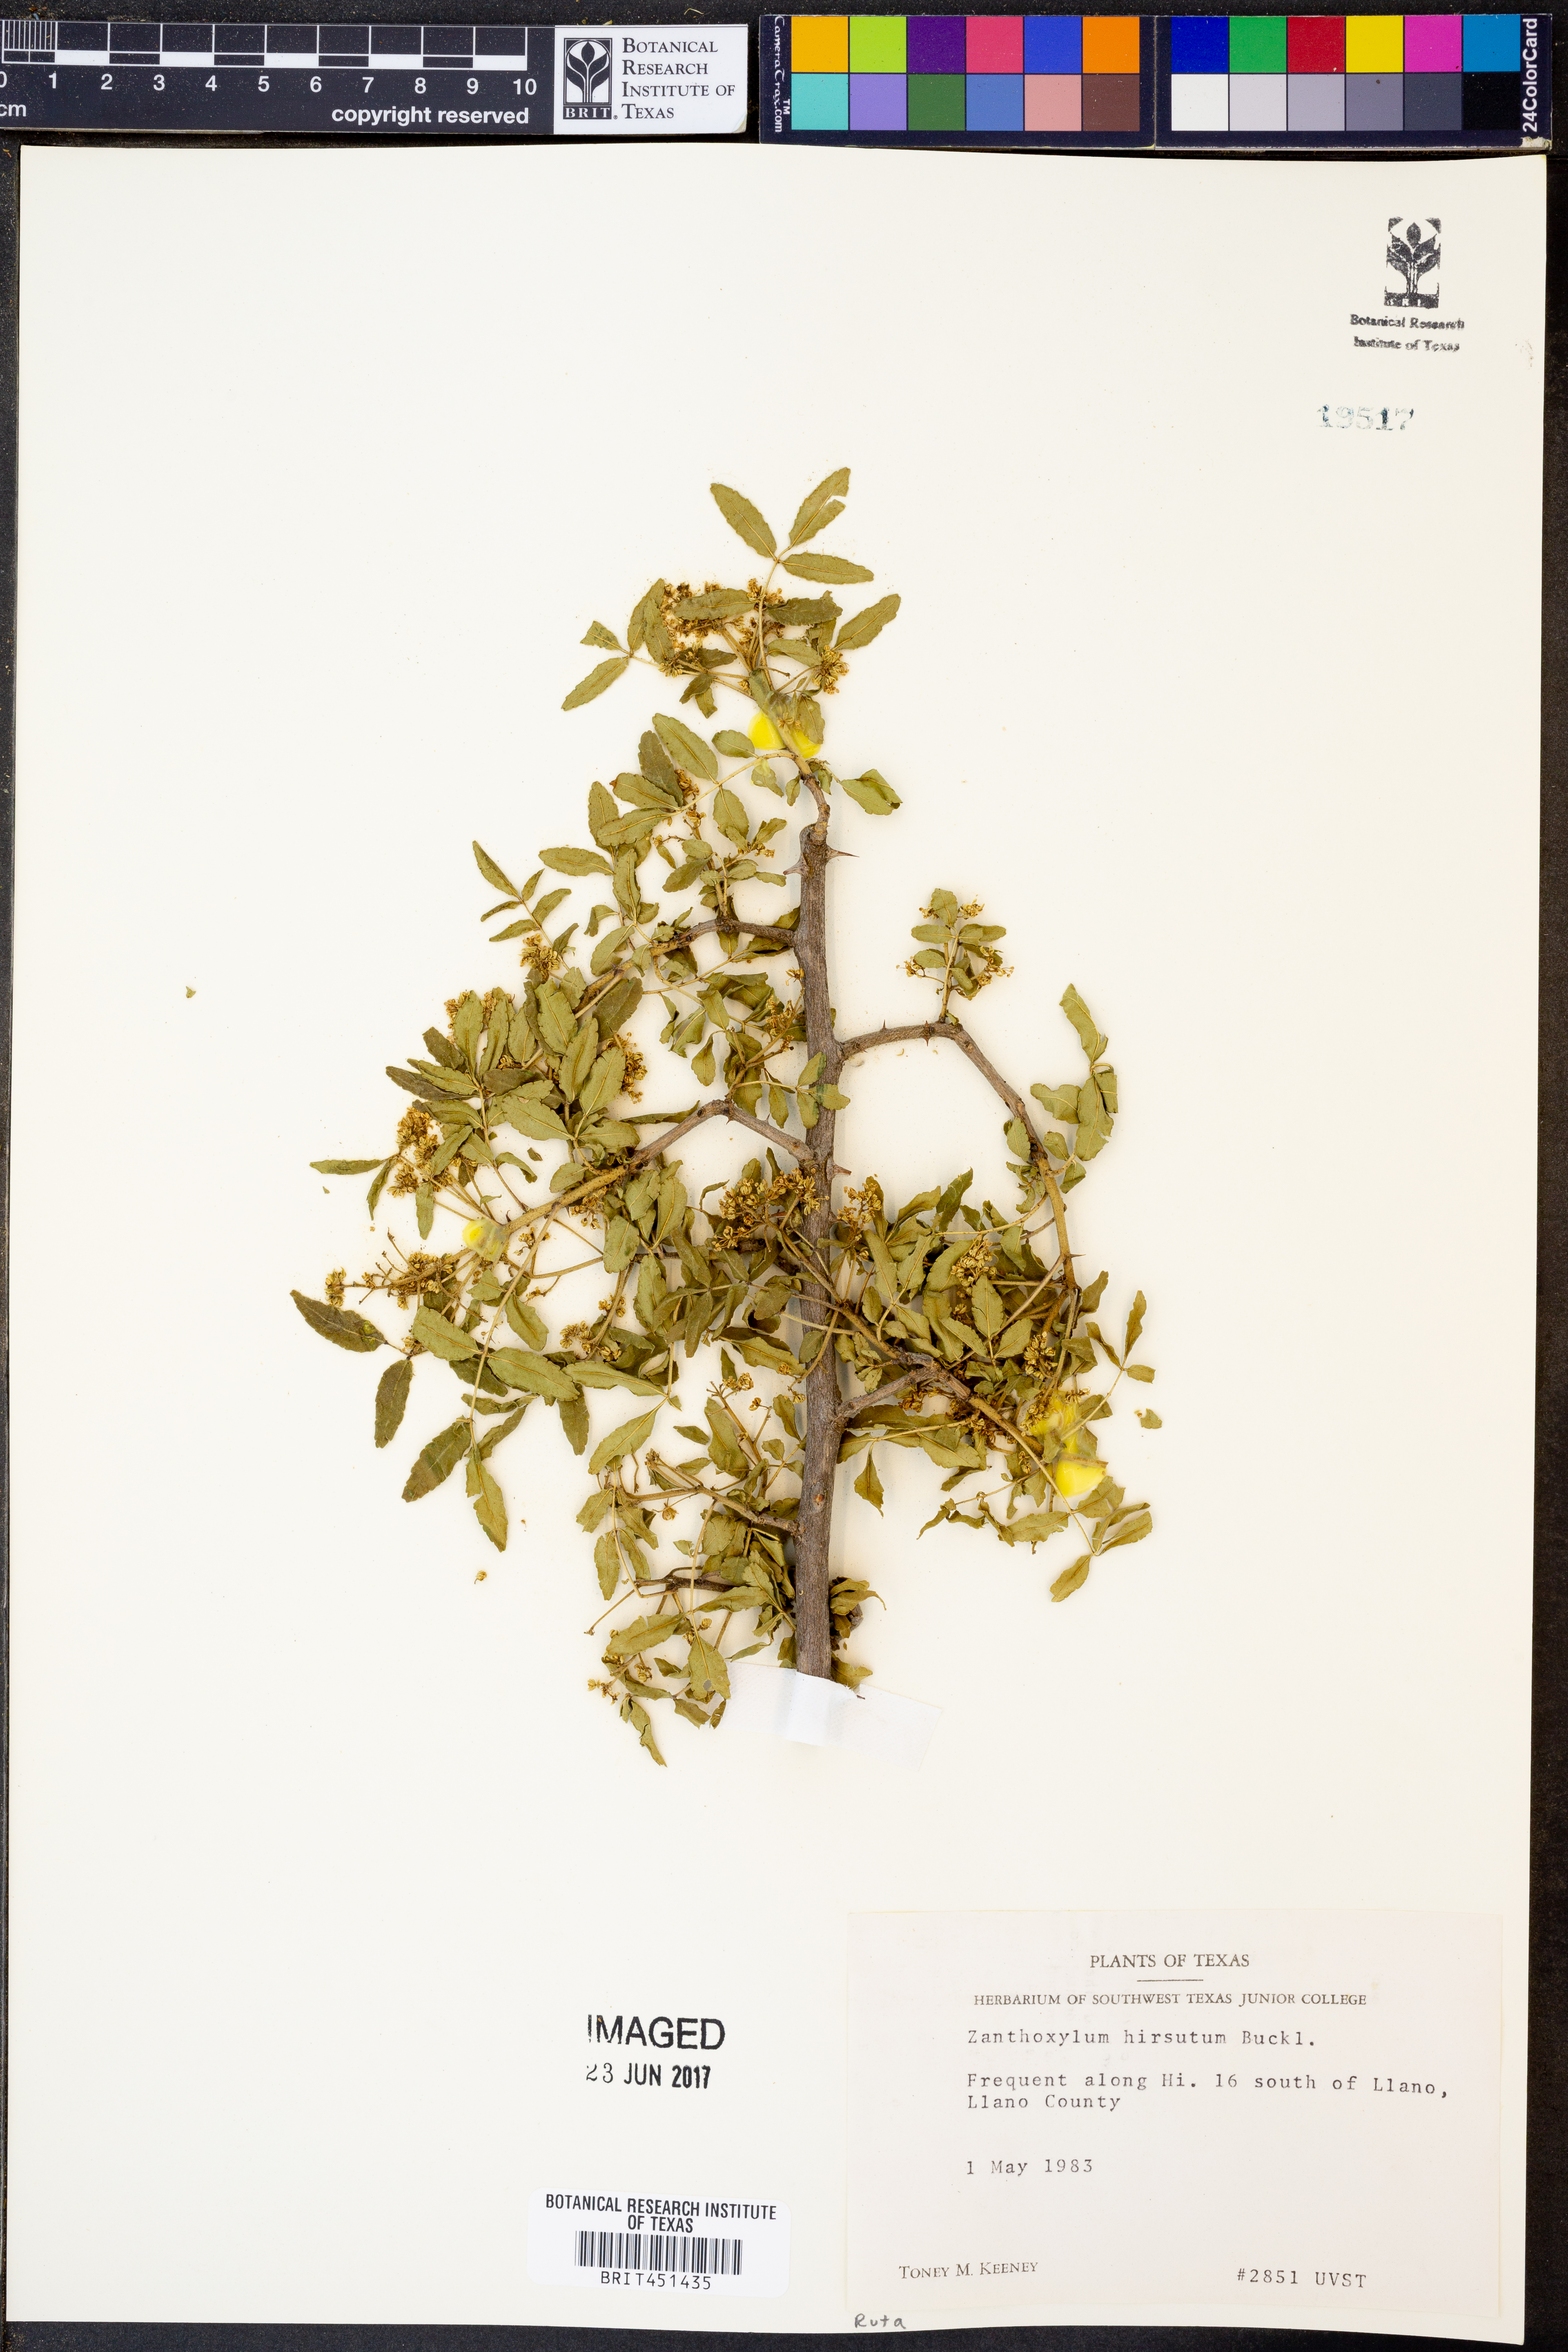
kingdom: Plantae
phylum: Tracheophyta
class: Magnoliopsida
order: Sapindales
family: Rutaceae
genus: Zanthoxylum
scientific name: Zanthoxylum clava-herculis
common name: Hercules'-club
